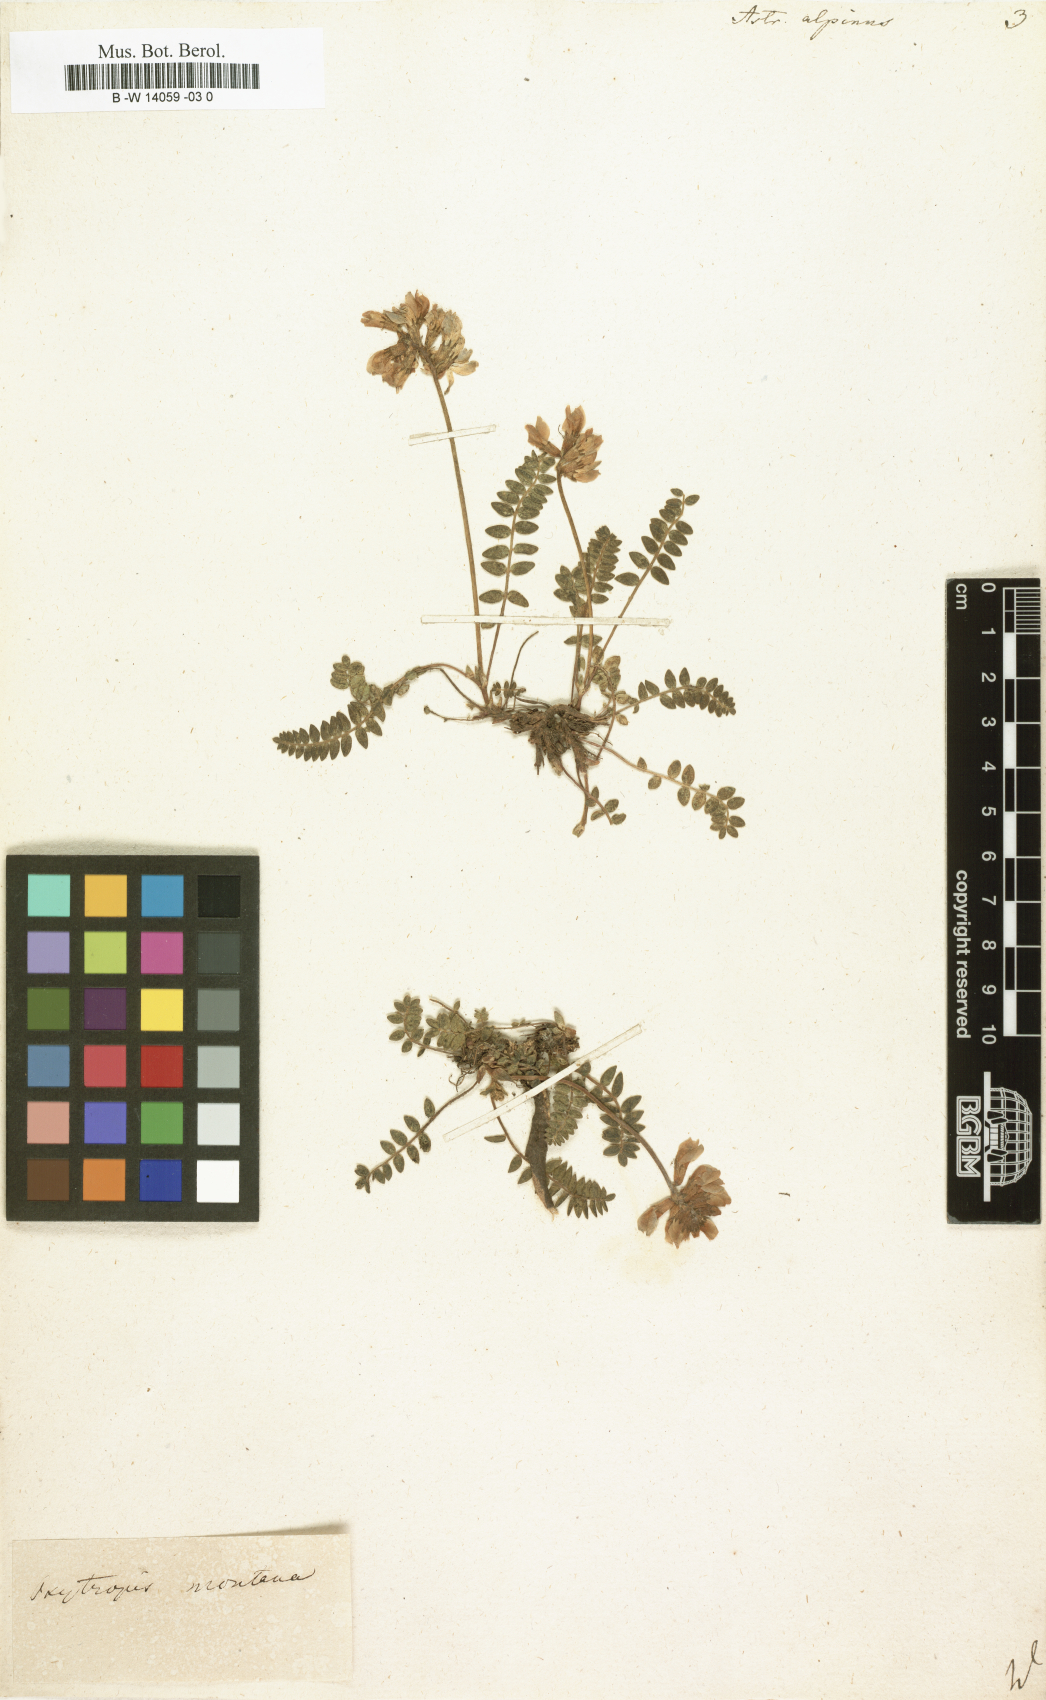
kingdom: Plantae
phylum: Tracheophyta
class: Magnoliopsida
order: Fabales
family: Fabaceae
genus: Astragalus
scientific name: Astragalus alpinus
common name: Alpine milk-vetch
